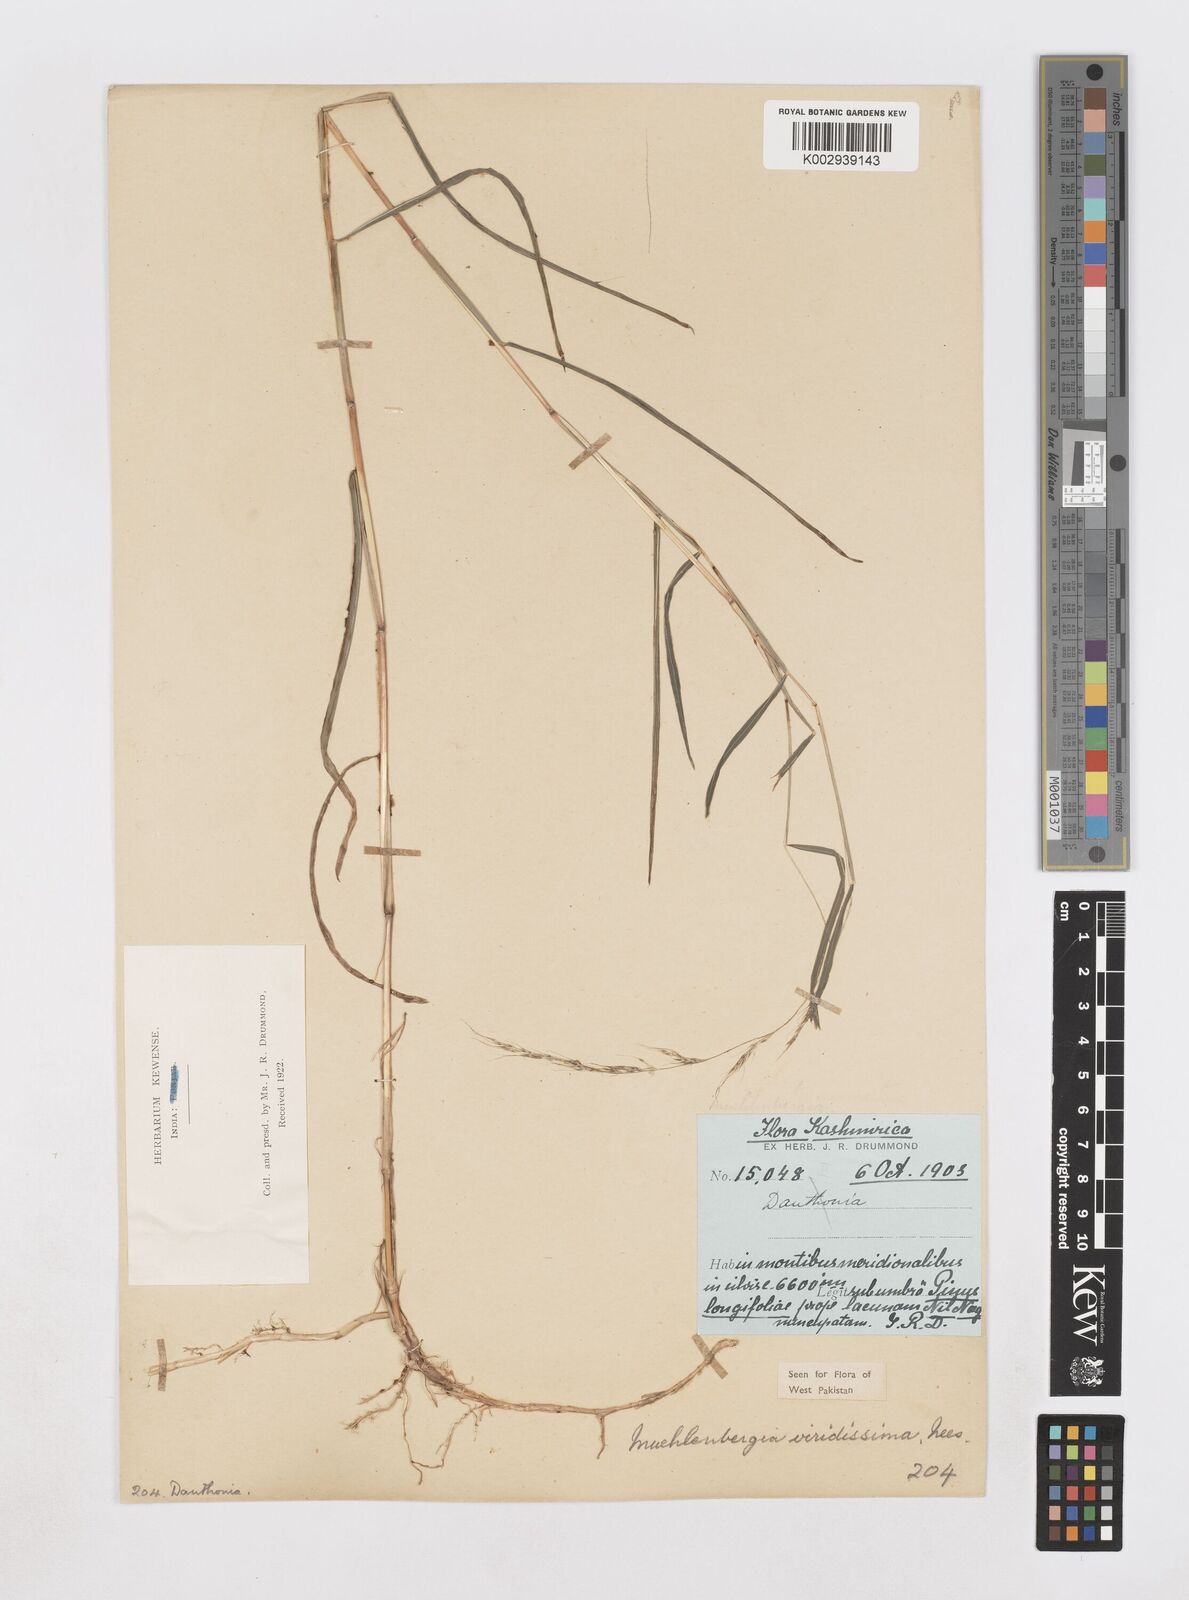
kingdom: Plantae
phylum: Tracheophyta
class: Liliopsida
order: Poales
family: Poaceae
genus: Muhlenbergia
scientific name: Muhlenbergia huegelii
